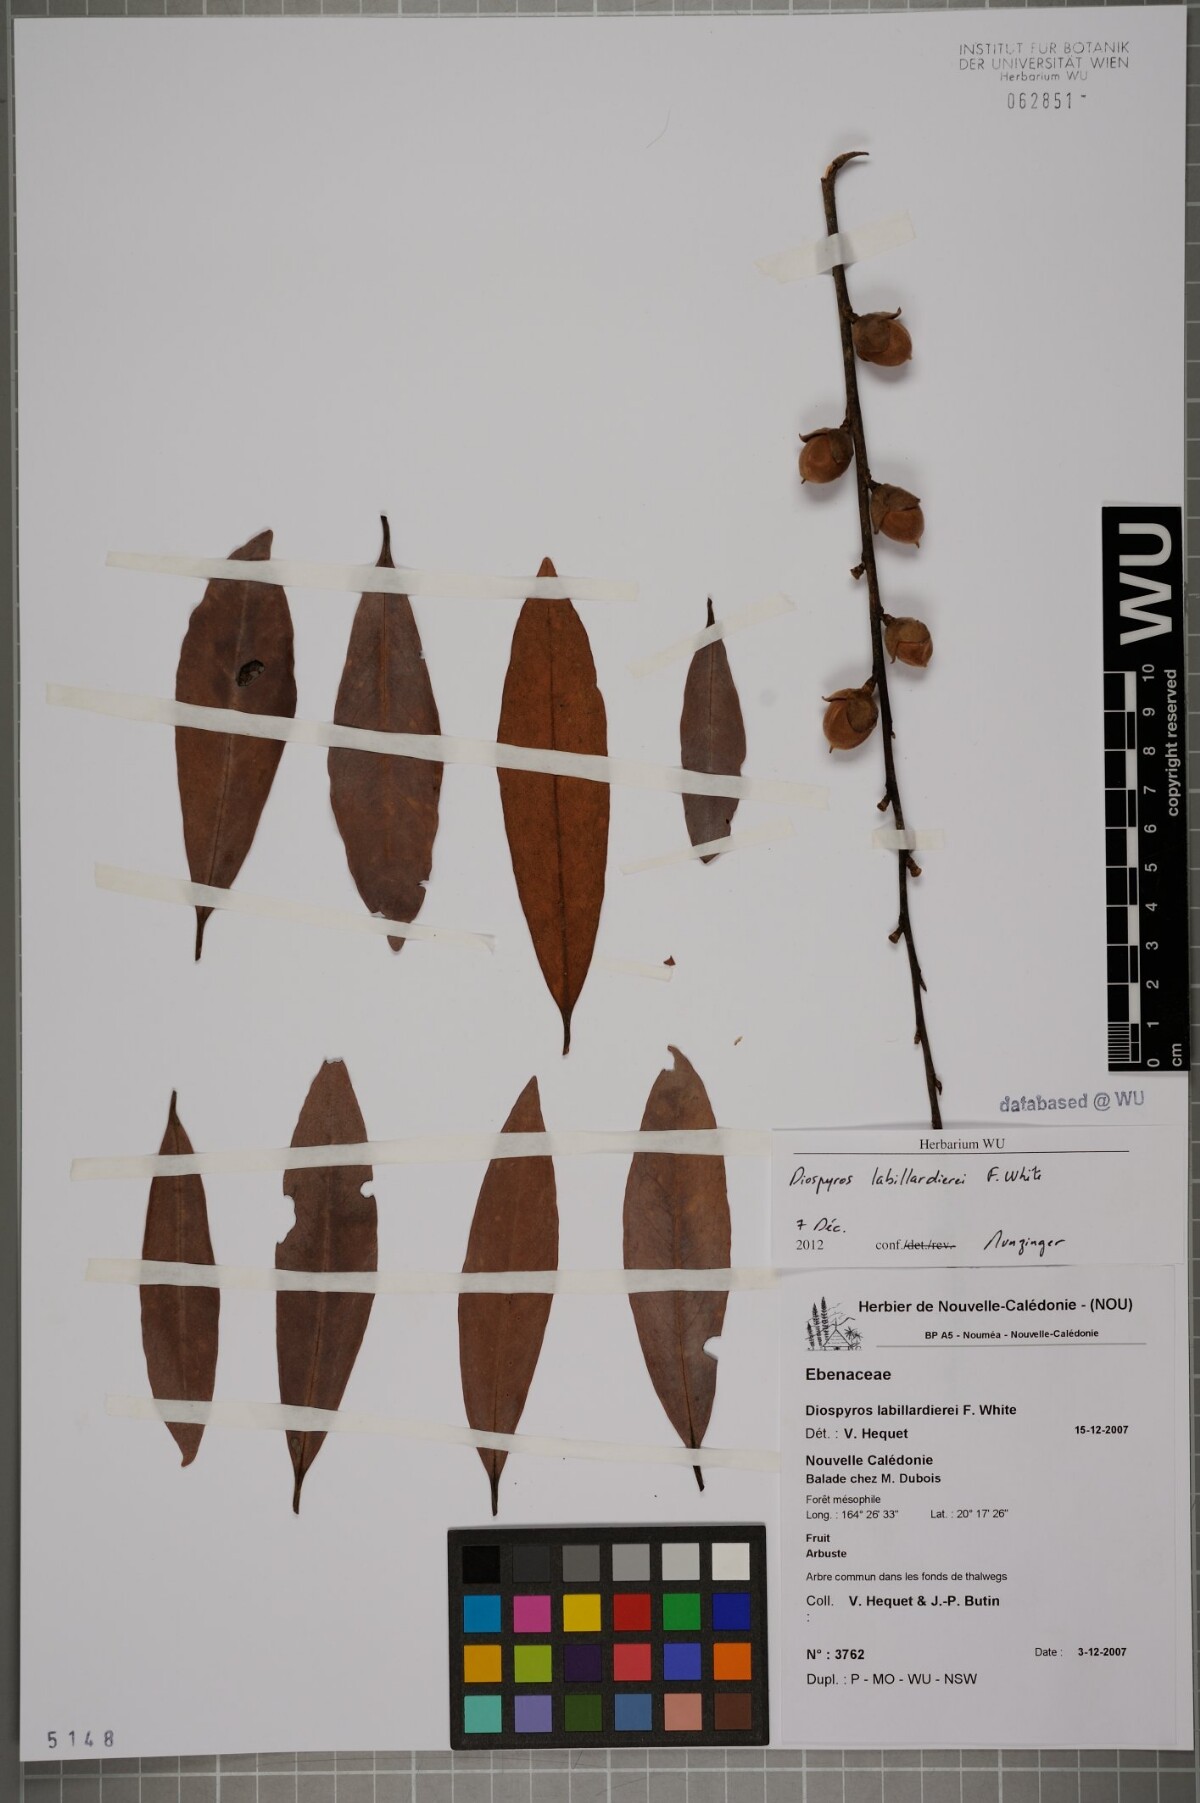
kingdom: Plantae
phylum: Tracheophyta
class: Magnoliopsida
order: Ericales
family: Ebenaceae
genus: Diospyros
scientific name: Diospyros labillardierei
